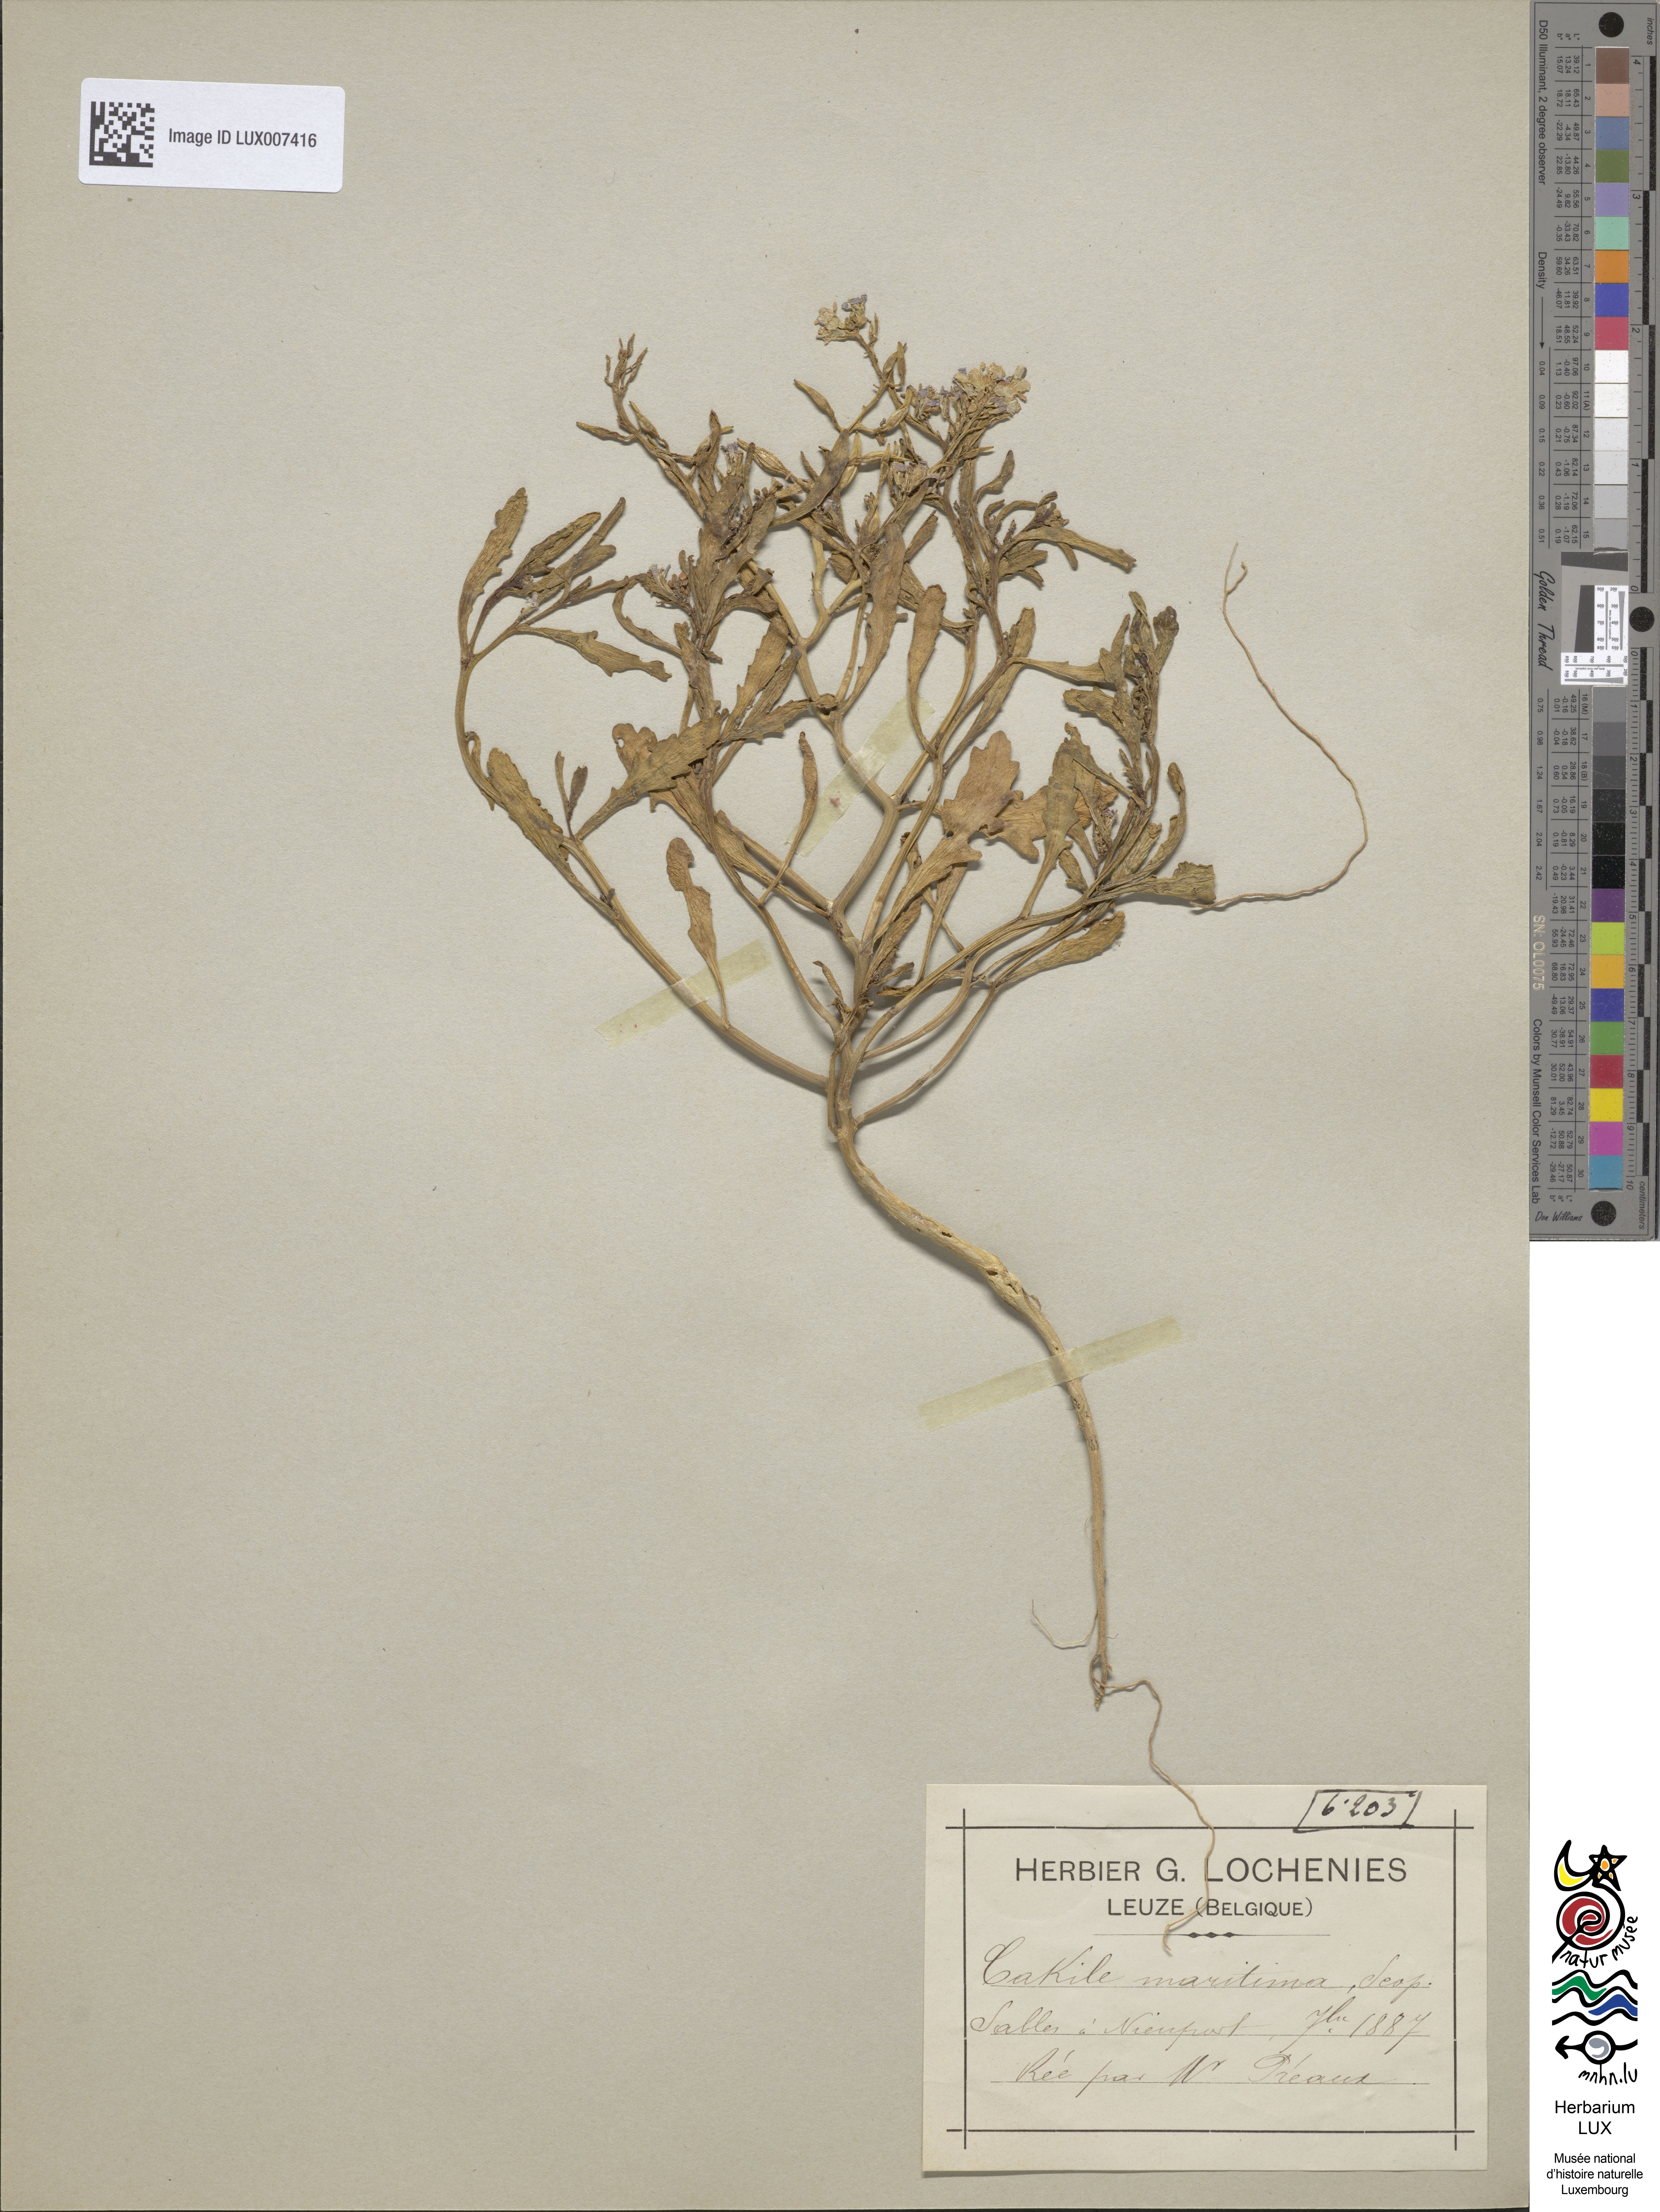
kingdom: Plantae
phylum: Tracheophyta
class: Magnoliopsida
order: Brassicales
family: Brassicaceae
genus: Cakile
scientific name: Cakile maritima
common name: Sea rocket
